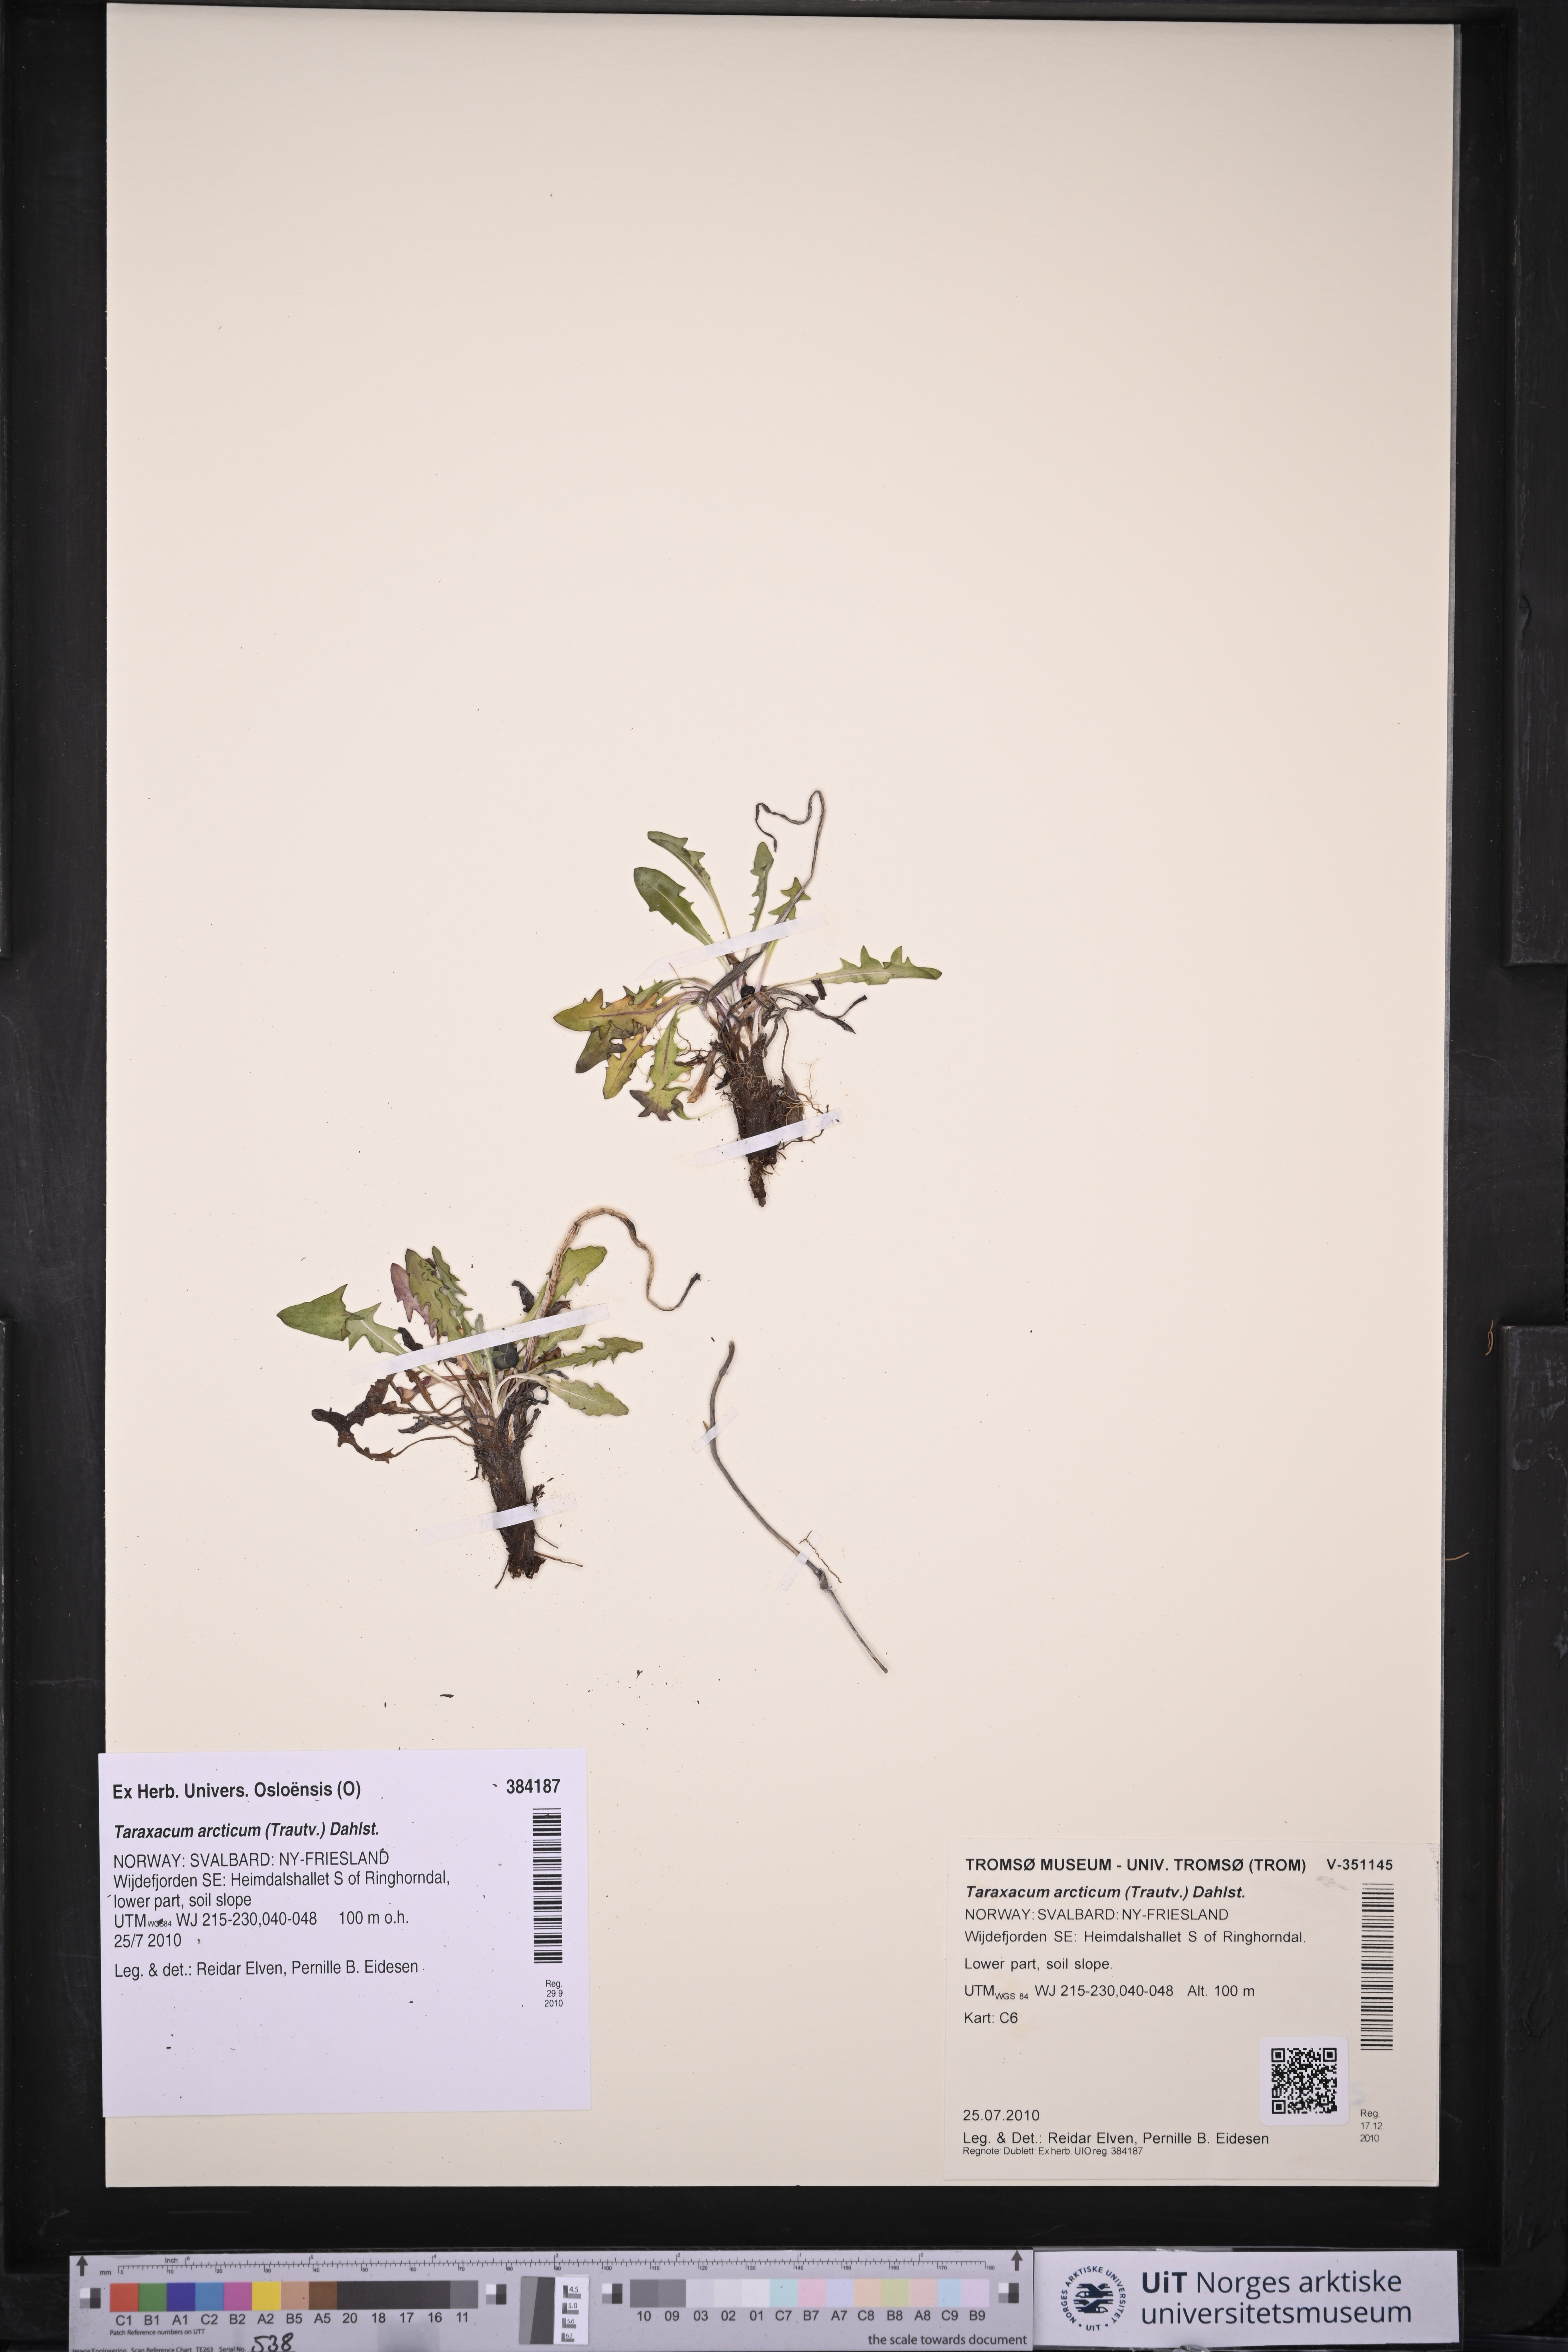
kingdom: Plantae
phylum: Tracheophyta
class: Magnoliopsida
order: Asterales
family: Asteraceae
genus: Taraxacum
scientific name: Taraxacum arcticum
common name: Arctic dandelion
